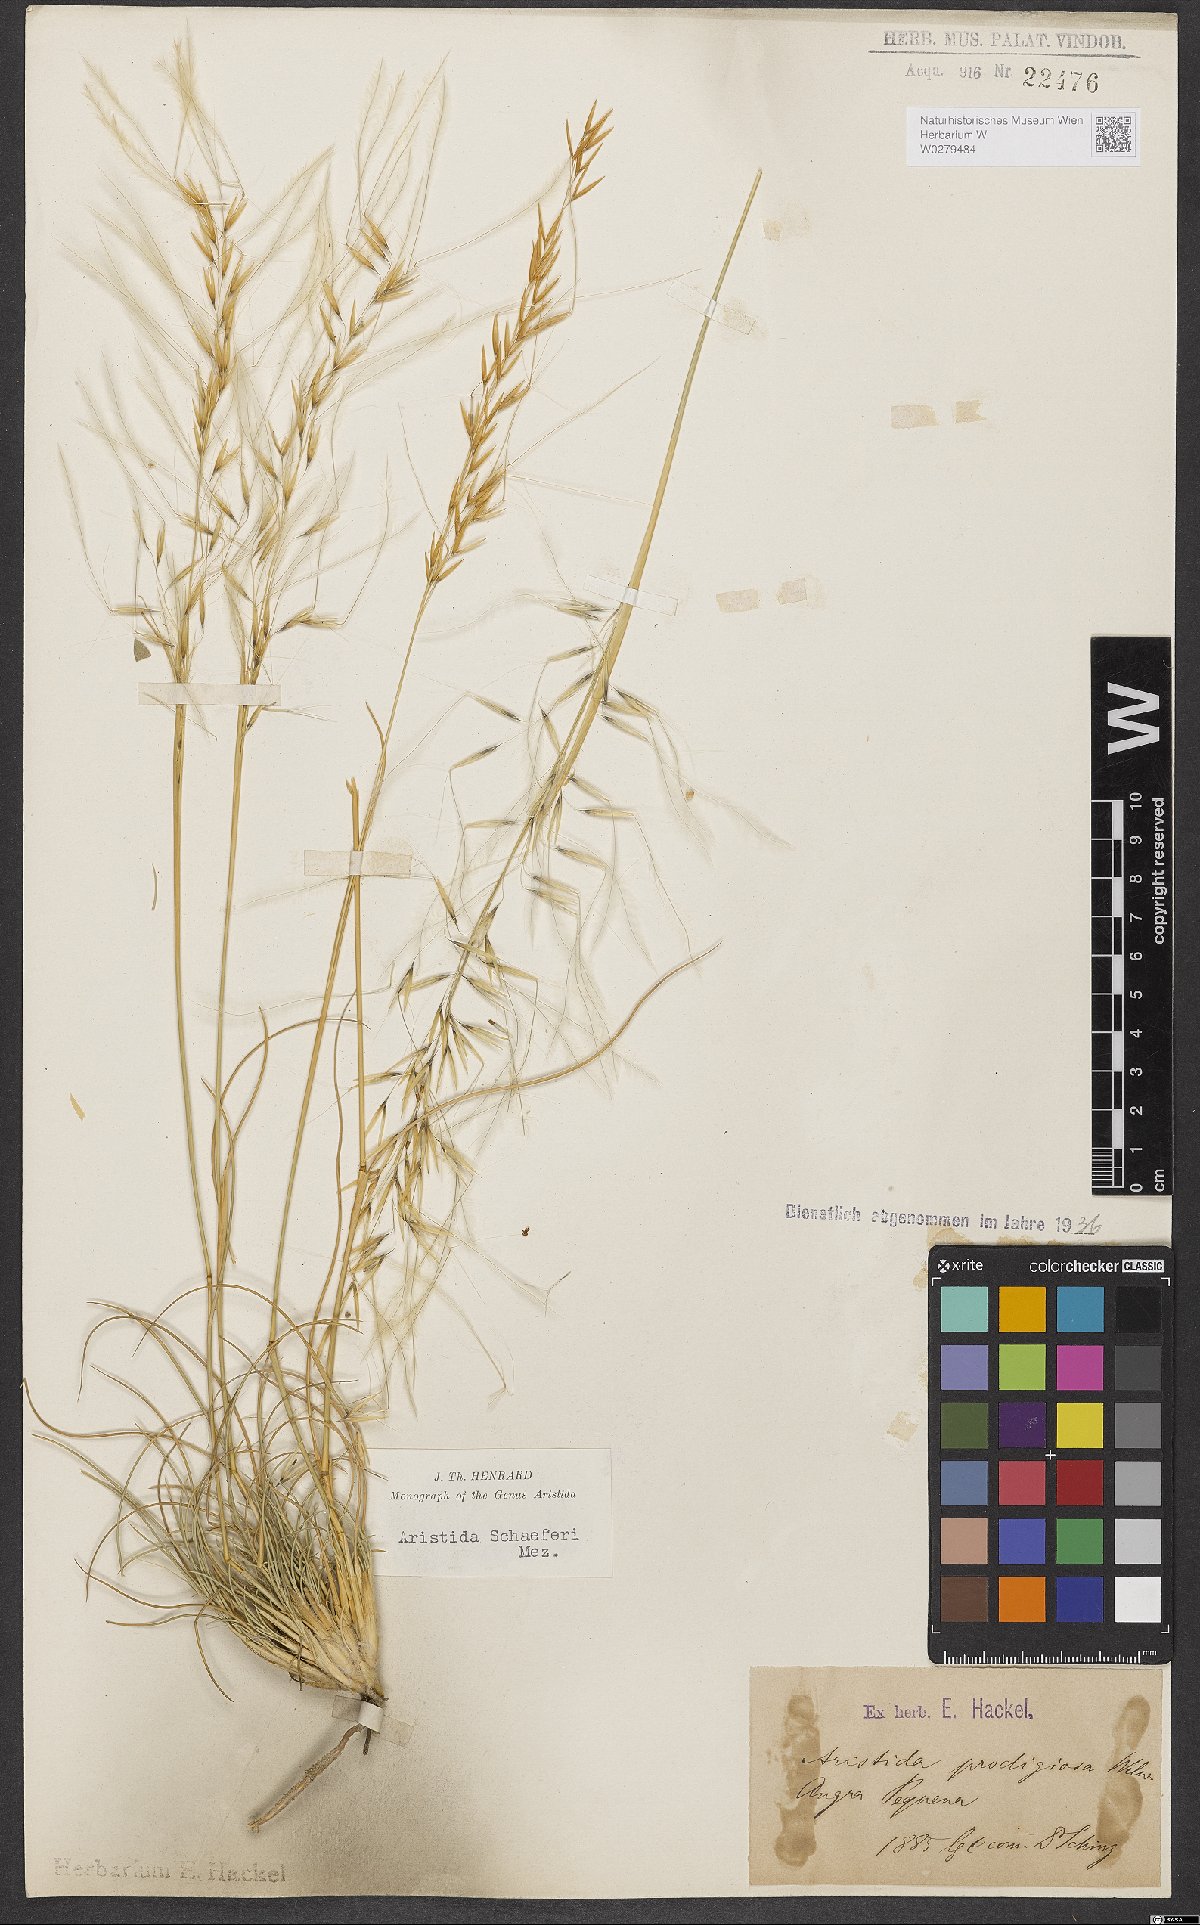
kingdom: Plantae
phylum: Tracheophyta
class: Liliopsida
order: Poales
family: Poaceae
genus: Stipagrostis
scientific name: Stipagrostis schaeferi
